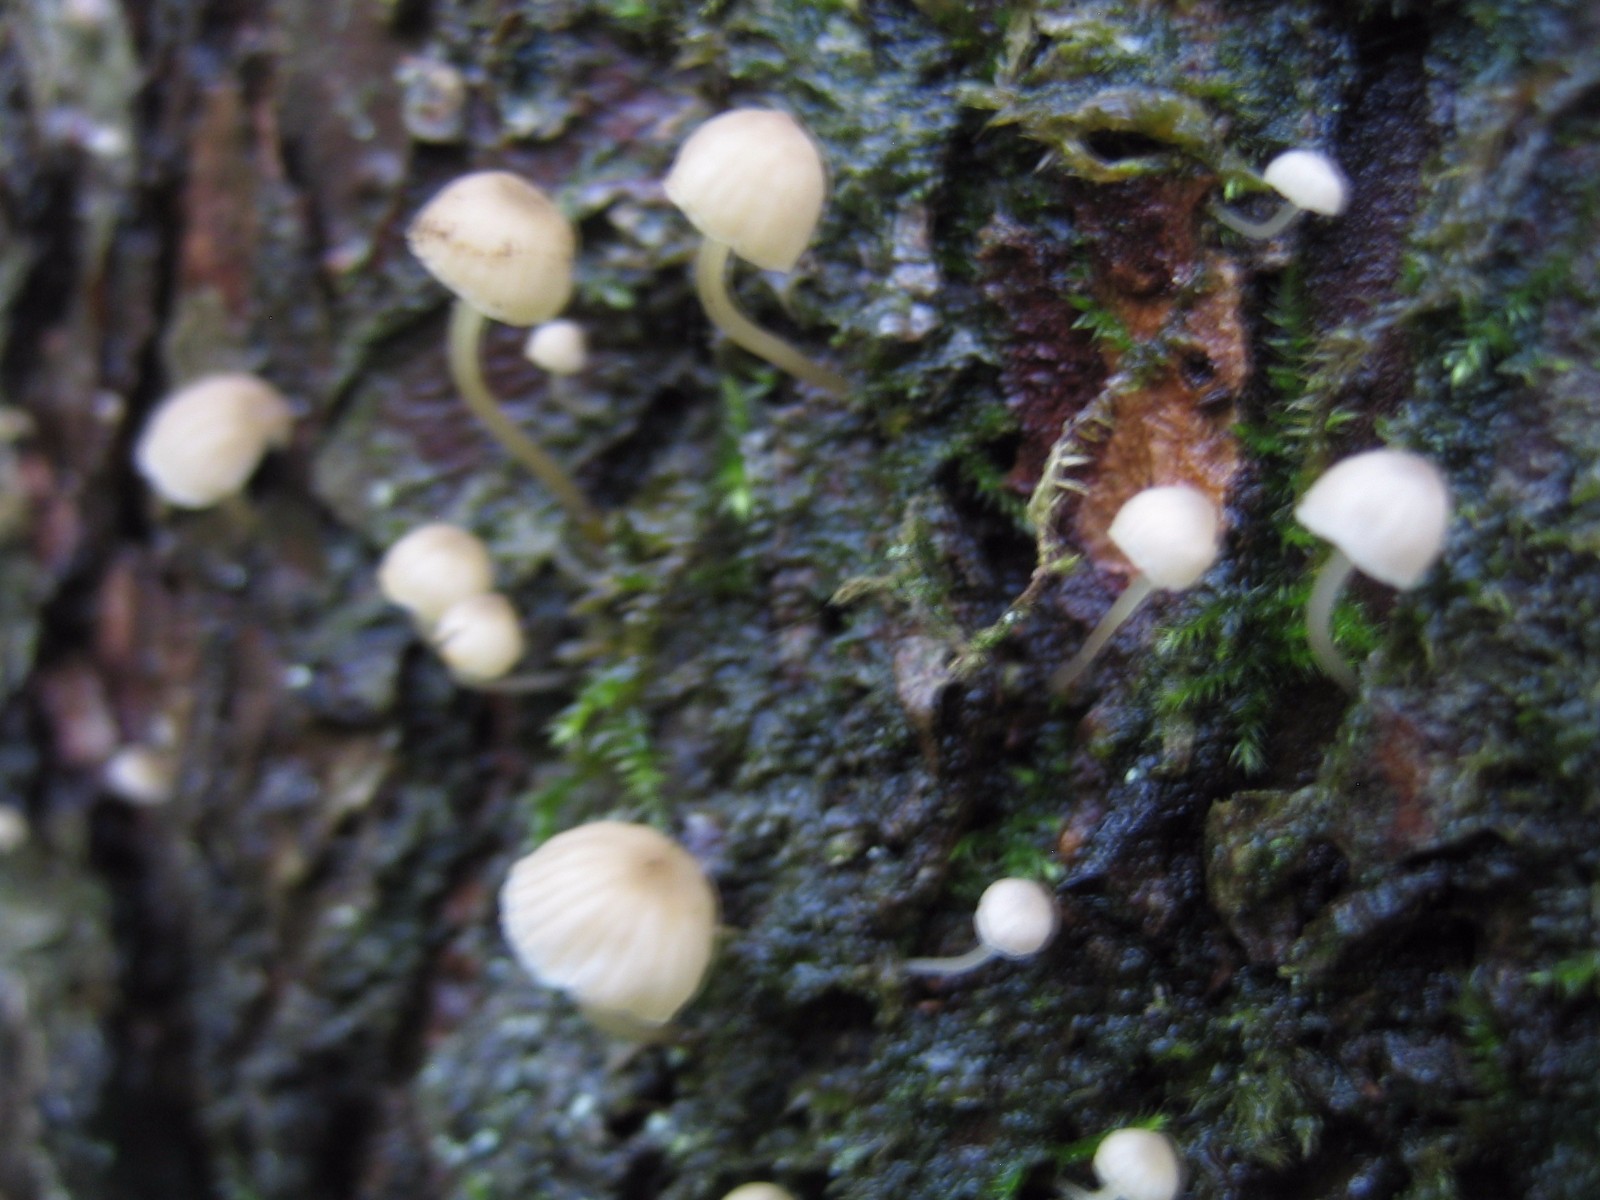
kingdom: Fungi
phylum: Basidiomycota
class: Agaricomycetes
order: Agaricales
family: Porotheleaceae
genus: Phloeomana
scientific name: Phloeomana speirea
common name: kvist-huesvamp
